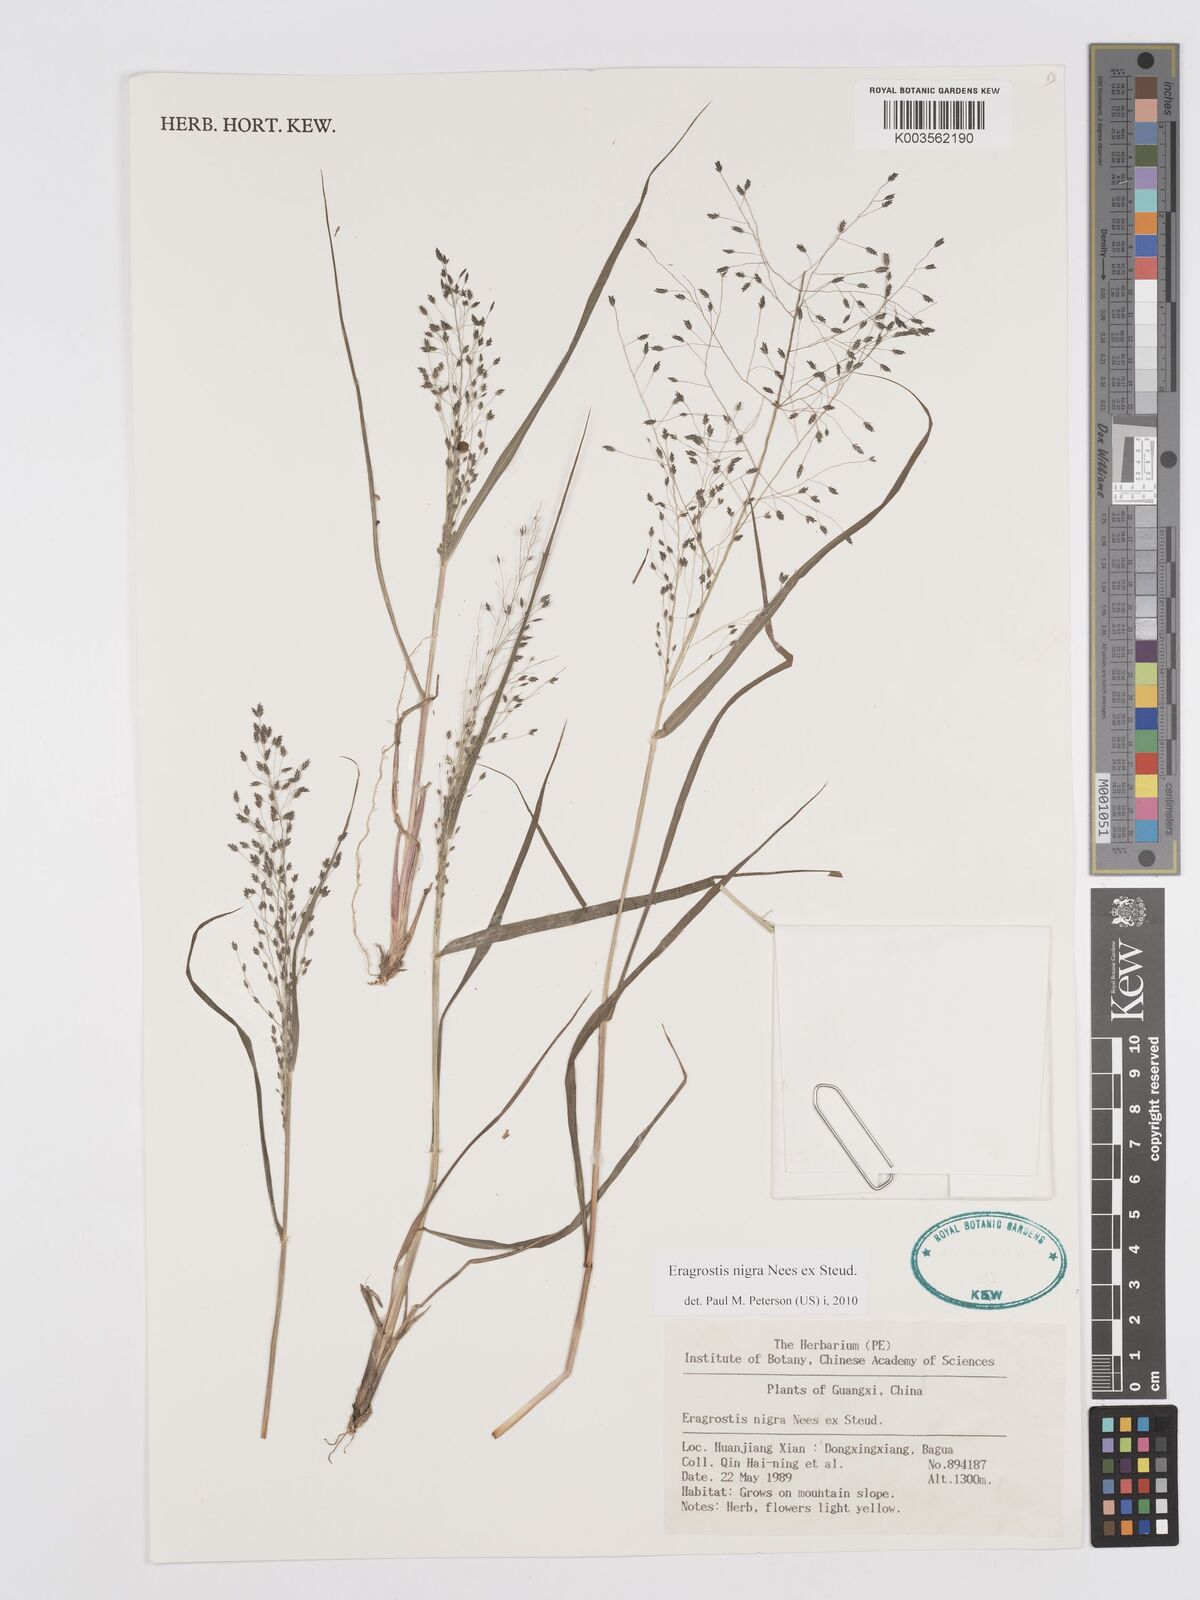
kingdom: Plantae
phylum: Tracheophyta
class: Liliopsida
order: Poales
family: Poaceae
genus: Eragrostis
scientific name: Eragrostis nigra
